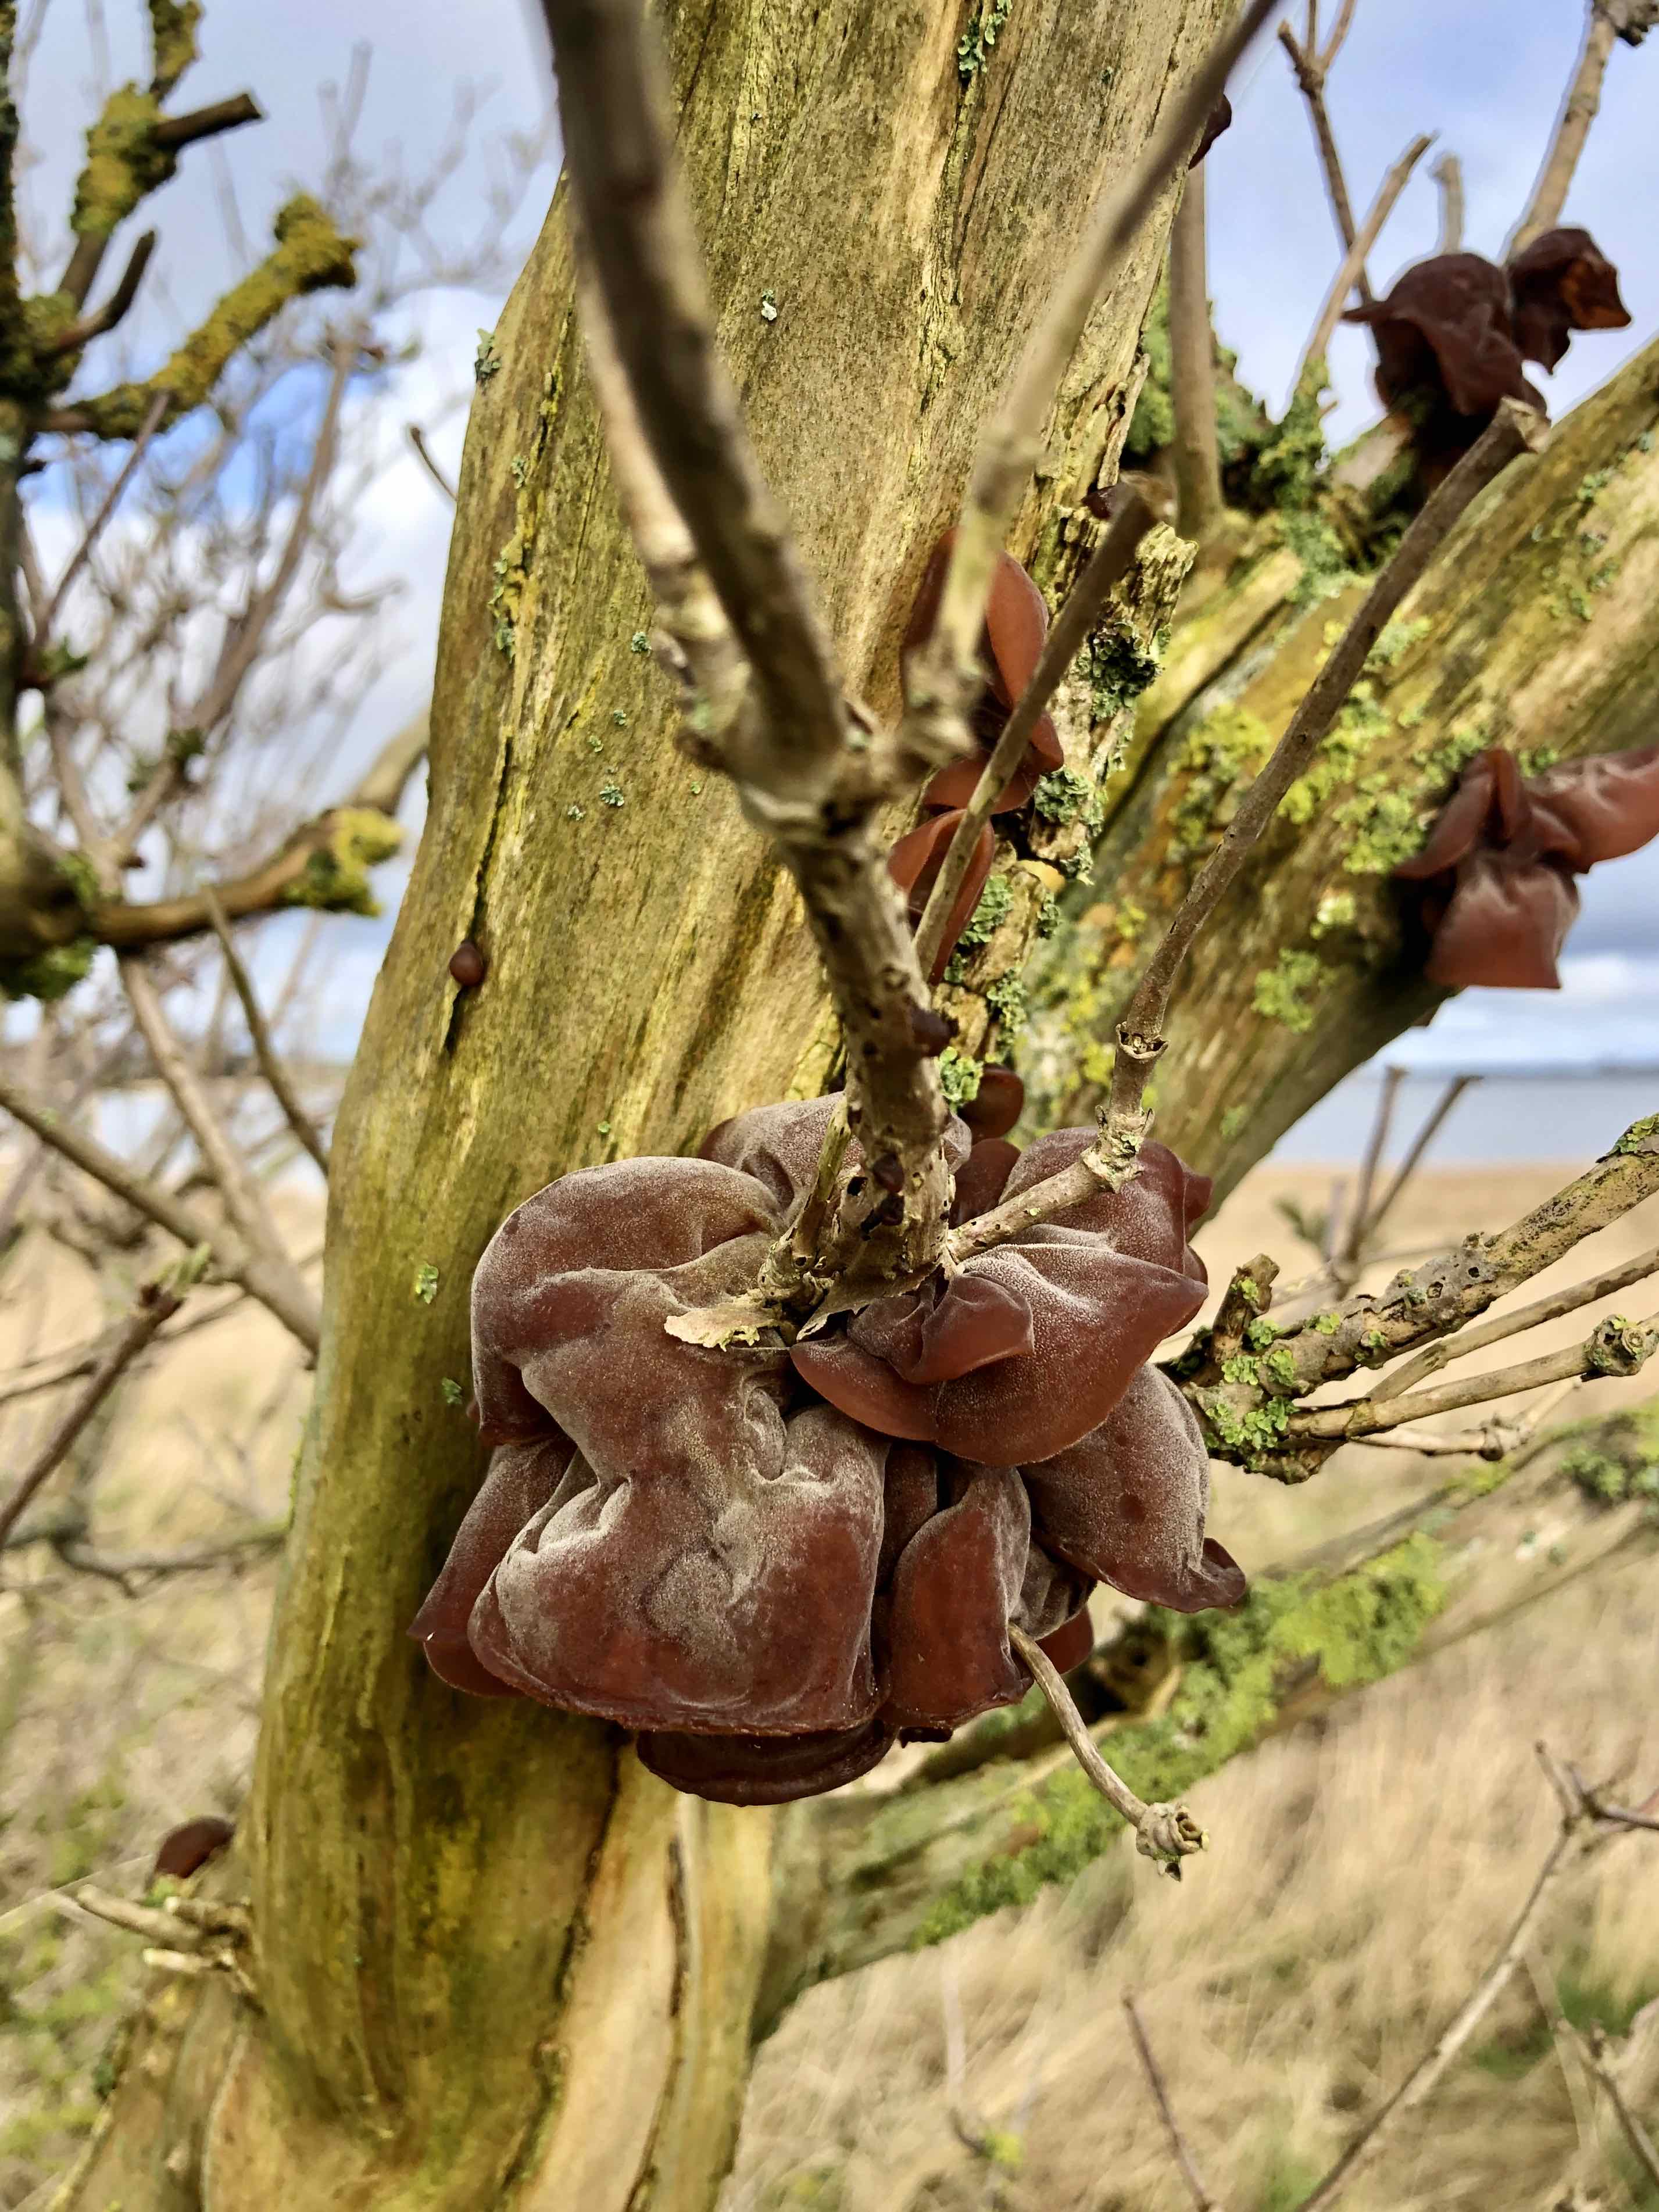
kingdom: Fungi
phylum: Basidiomycota
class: Agaricomycetes
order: Auriculariales
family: Auriculariaceae
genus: Auricularia
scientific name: Auricularia auricula-judae
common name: almindelig judasøre
